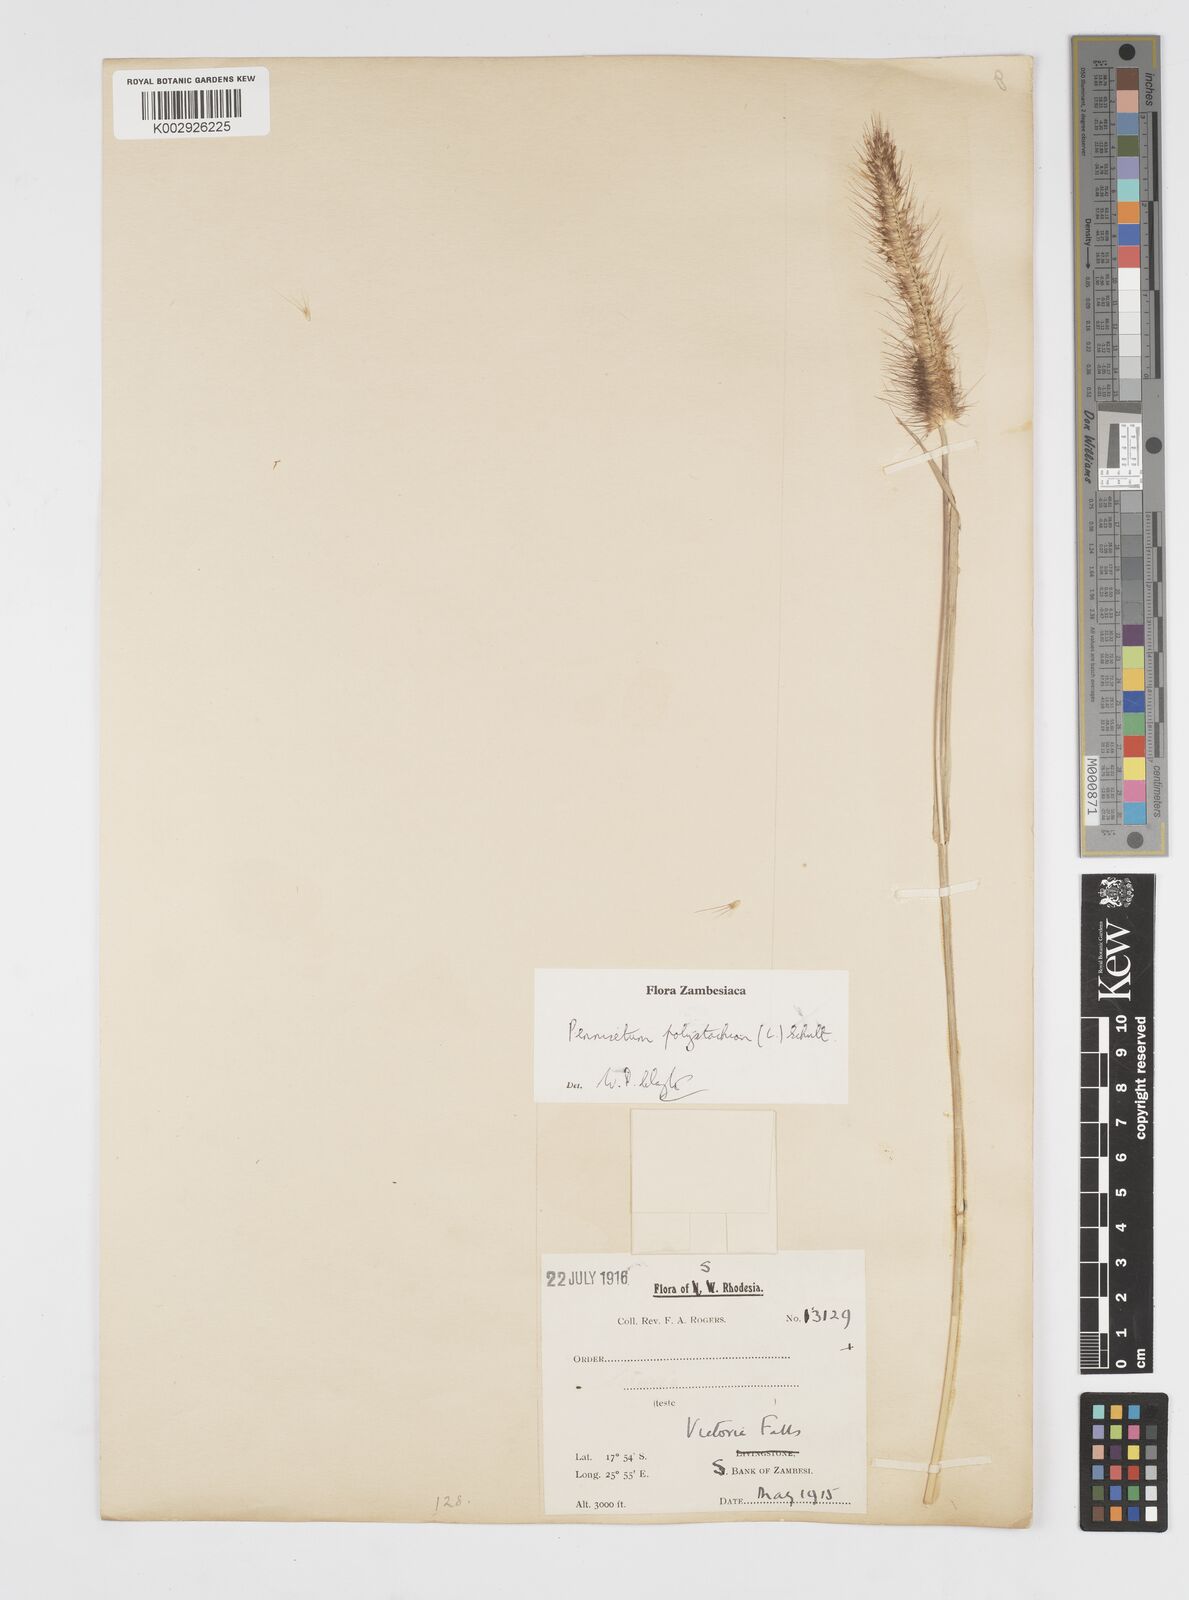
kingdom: Plantae
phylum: Tracheophyta
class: Liliopsida
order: Poales
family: Poaceae
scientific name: Poaceae
